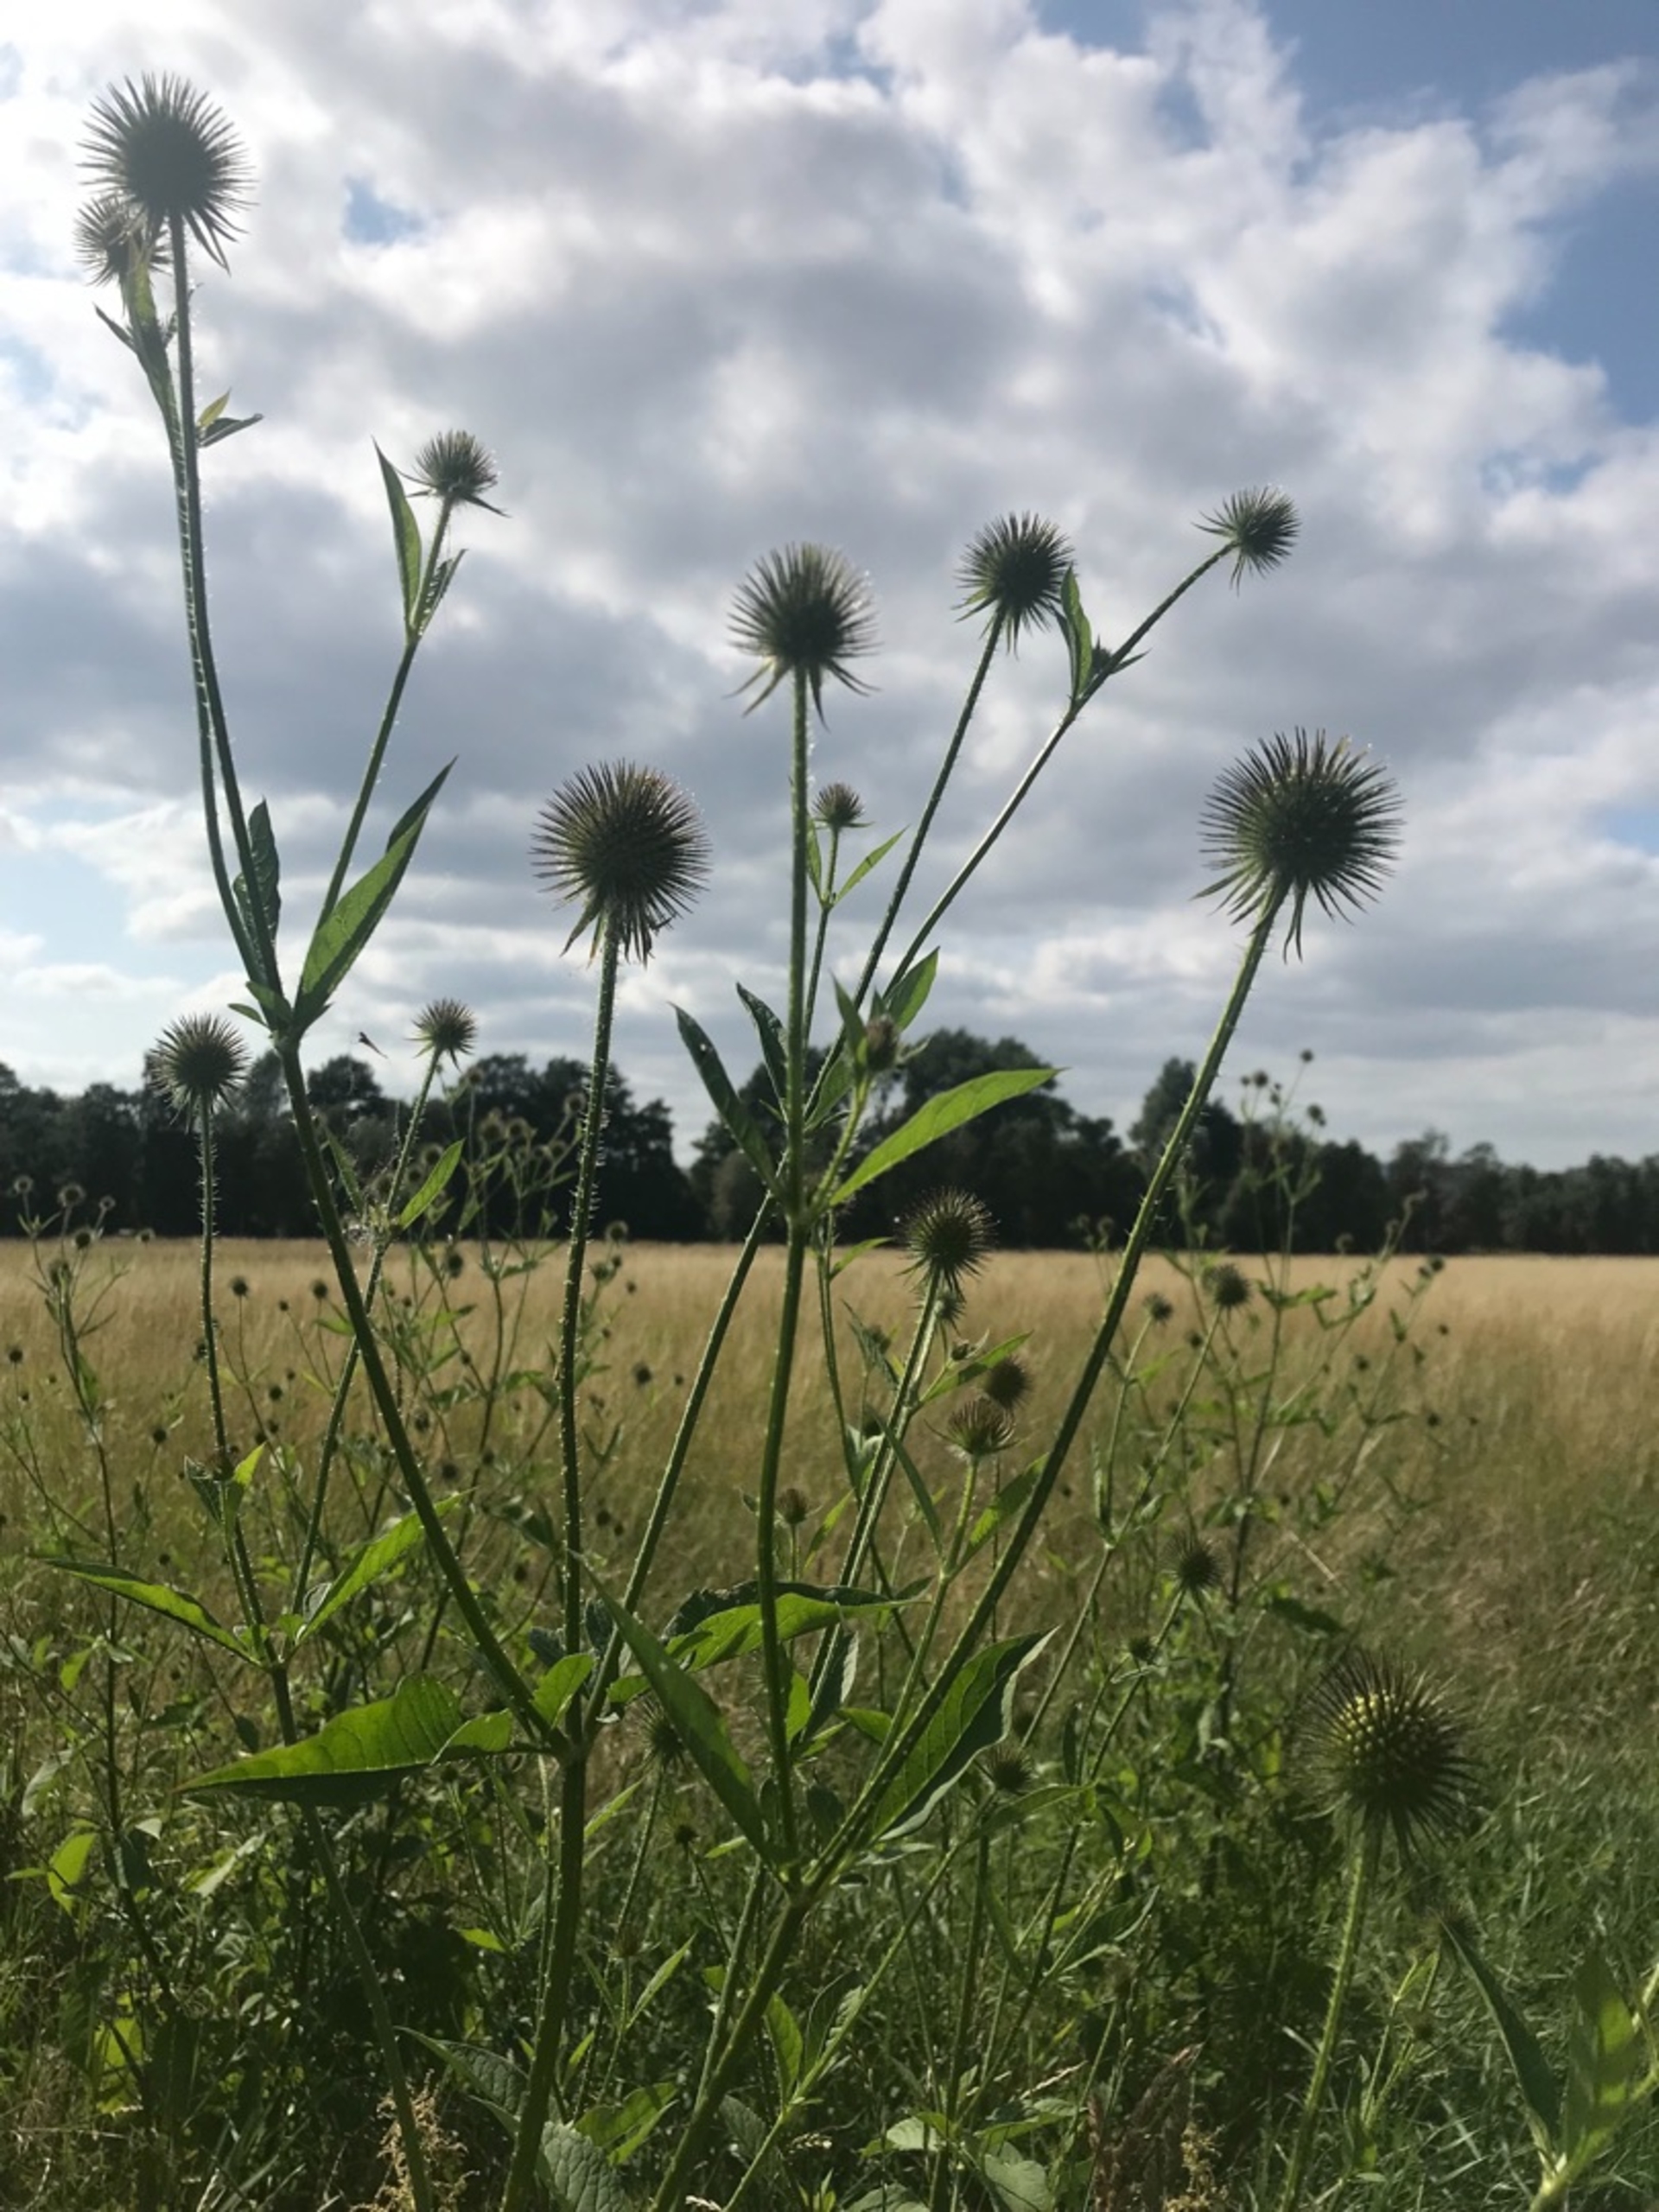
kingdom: Plantae
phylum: Tracheophyta
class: Magnoliopsida
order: Dipsacales
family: Caprifoliaceae
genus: Dipsacus
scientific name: Dipsacus strigosus
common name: Pindsvin-kartebolle
